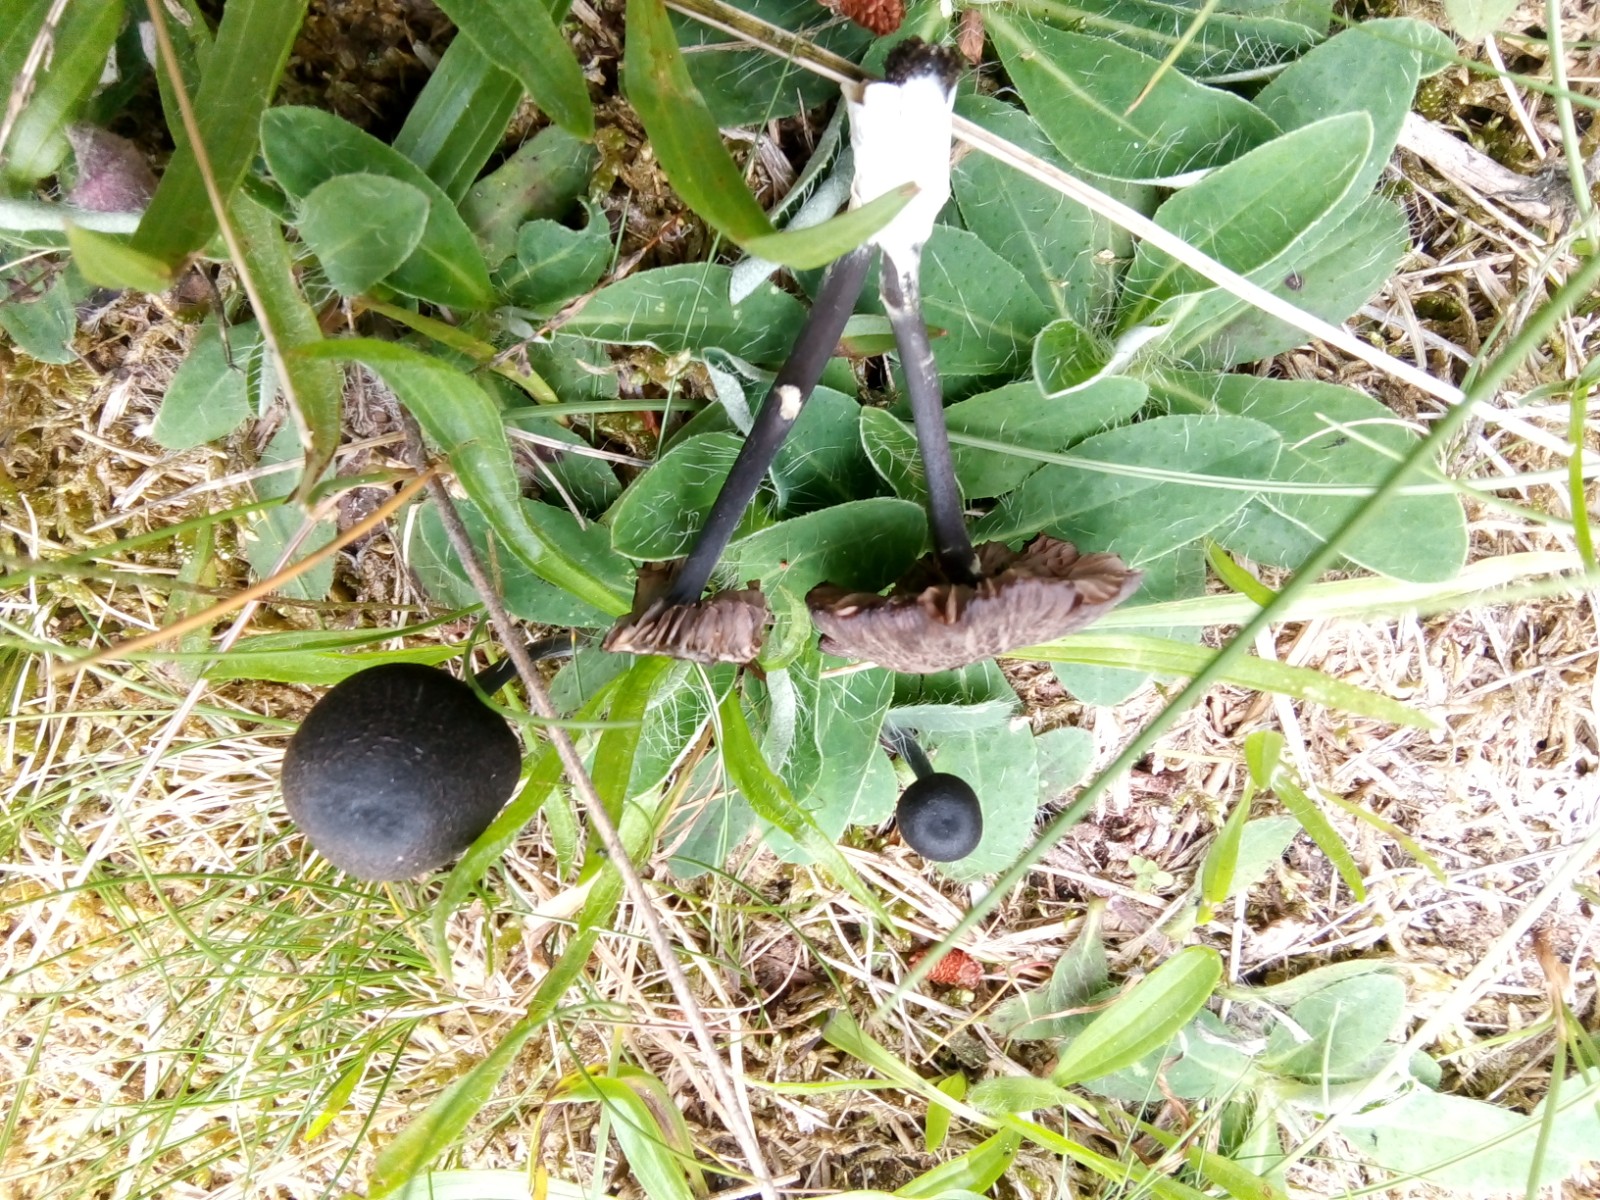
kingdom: Fungi
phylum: Basidiomycota
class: Agaricomycetes
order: Agaricales
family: Entolomataceae
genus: Entoloma
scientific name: Entoloma
